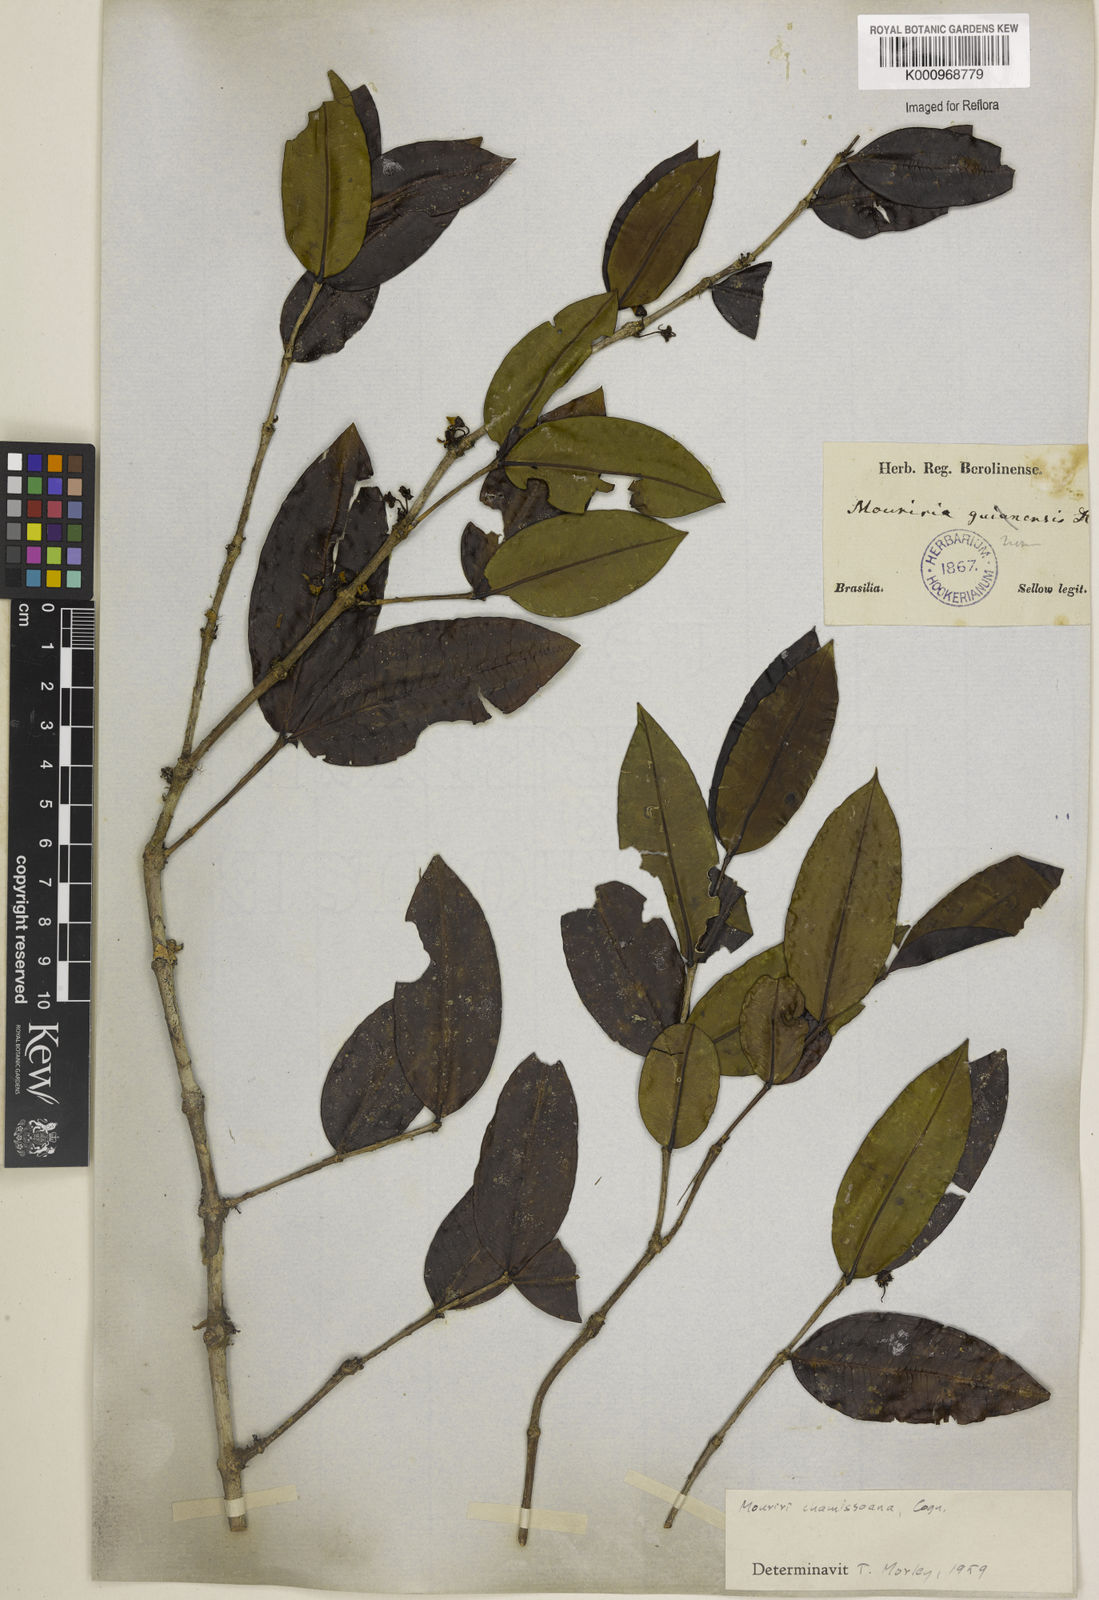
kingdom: Plantae
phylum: Tracheophyta
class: Magnoliopsida
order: Myrtales
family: Melastomataceae
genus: Mouriri
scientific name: Mouriri chamissoana
